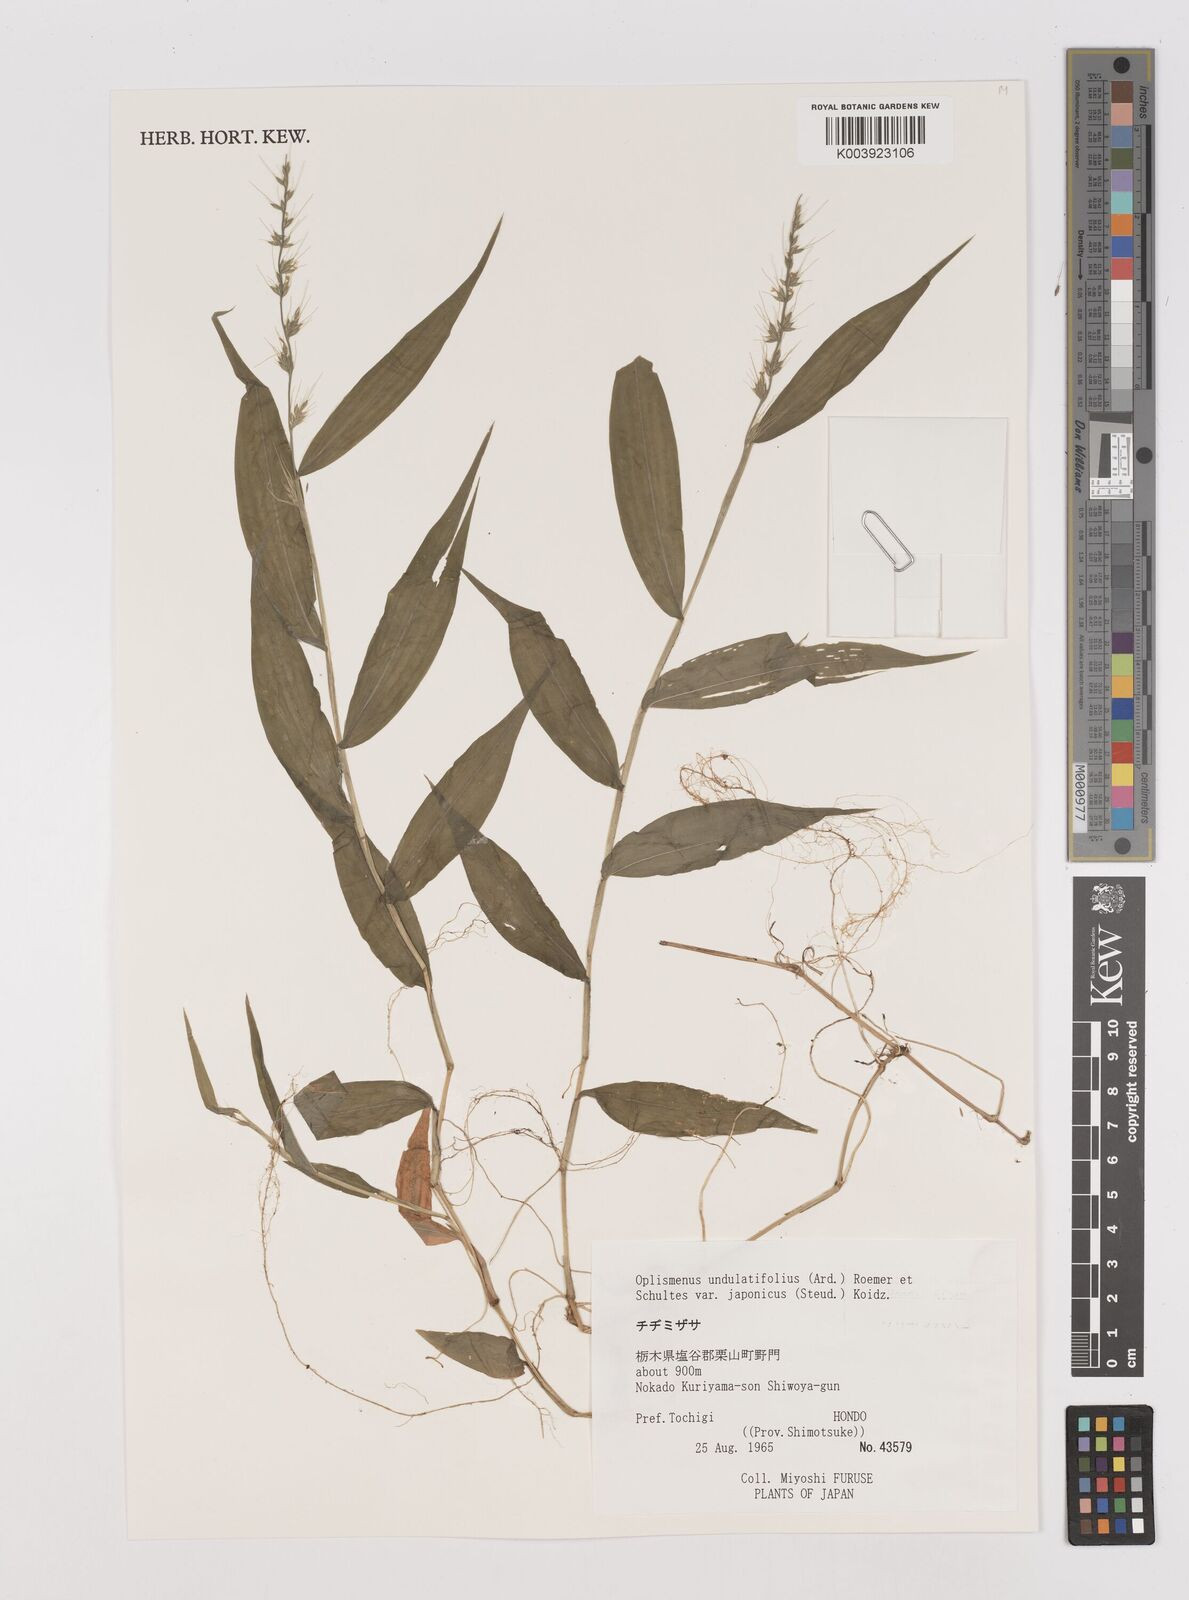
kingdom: Plantae
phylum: Tracheophyta
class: Liliopsida
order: Poales
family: Poaceae
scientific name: Poaceae
